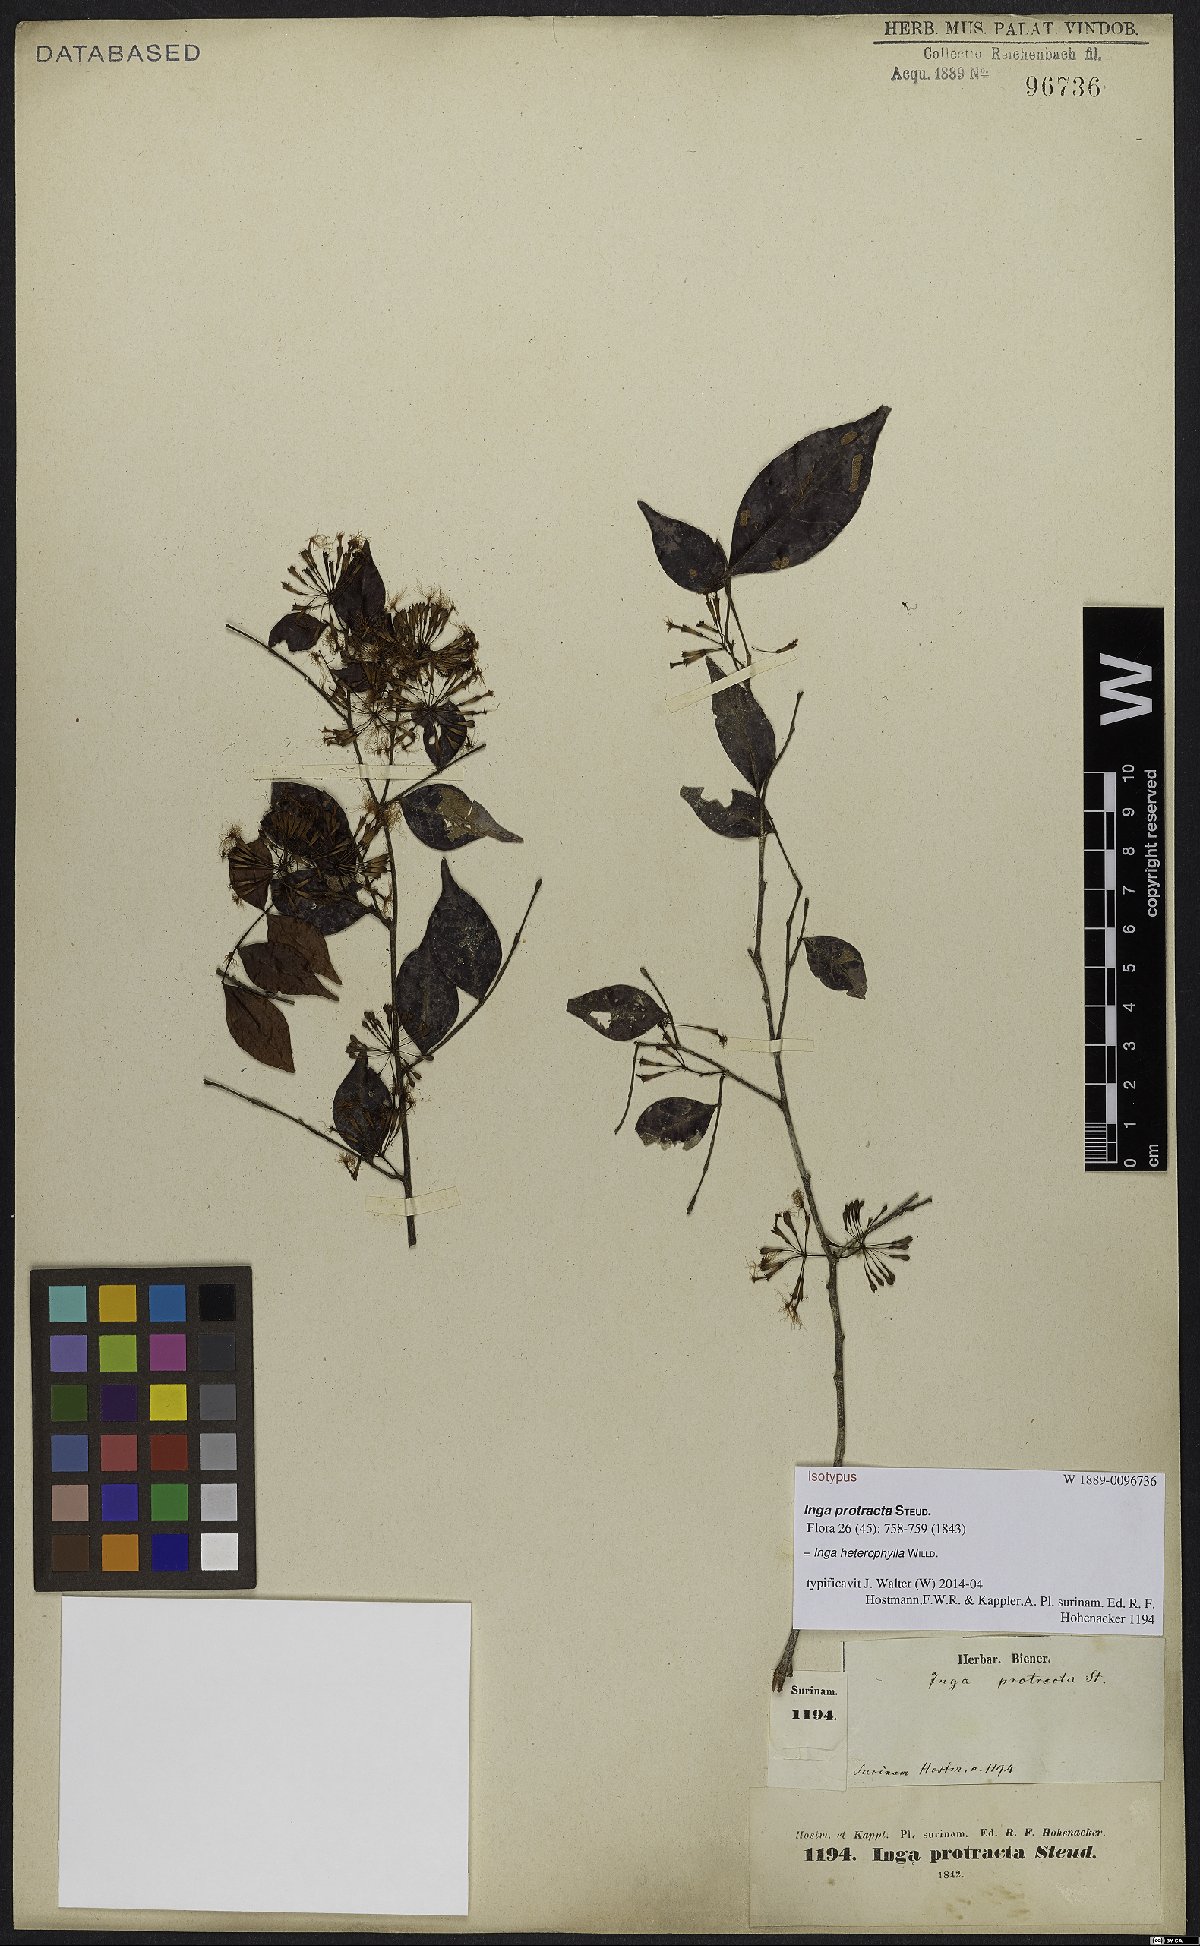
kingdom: Plantae
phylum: Tracheophyta
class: Magnoliopsida
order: Fabales
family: Fabaceae
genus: Inga
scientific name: Inga heterophylla
